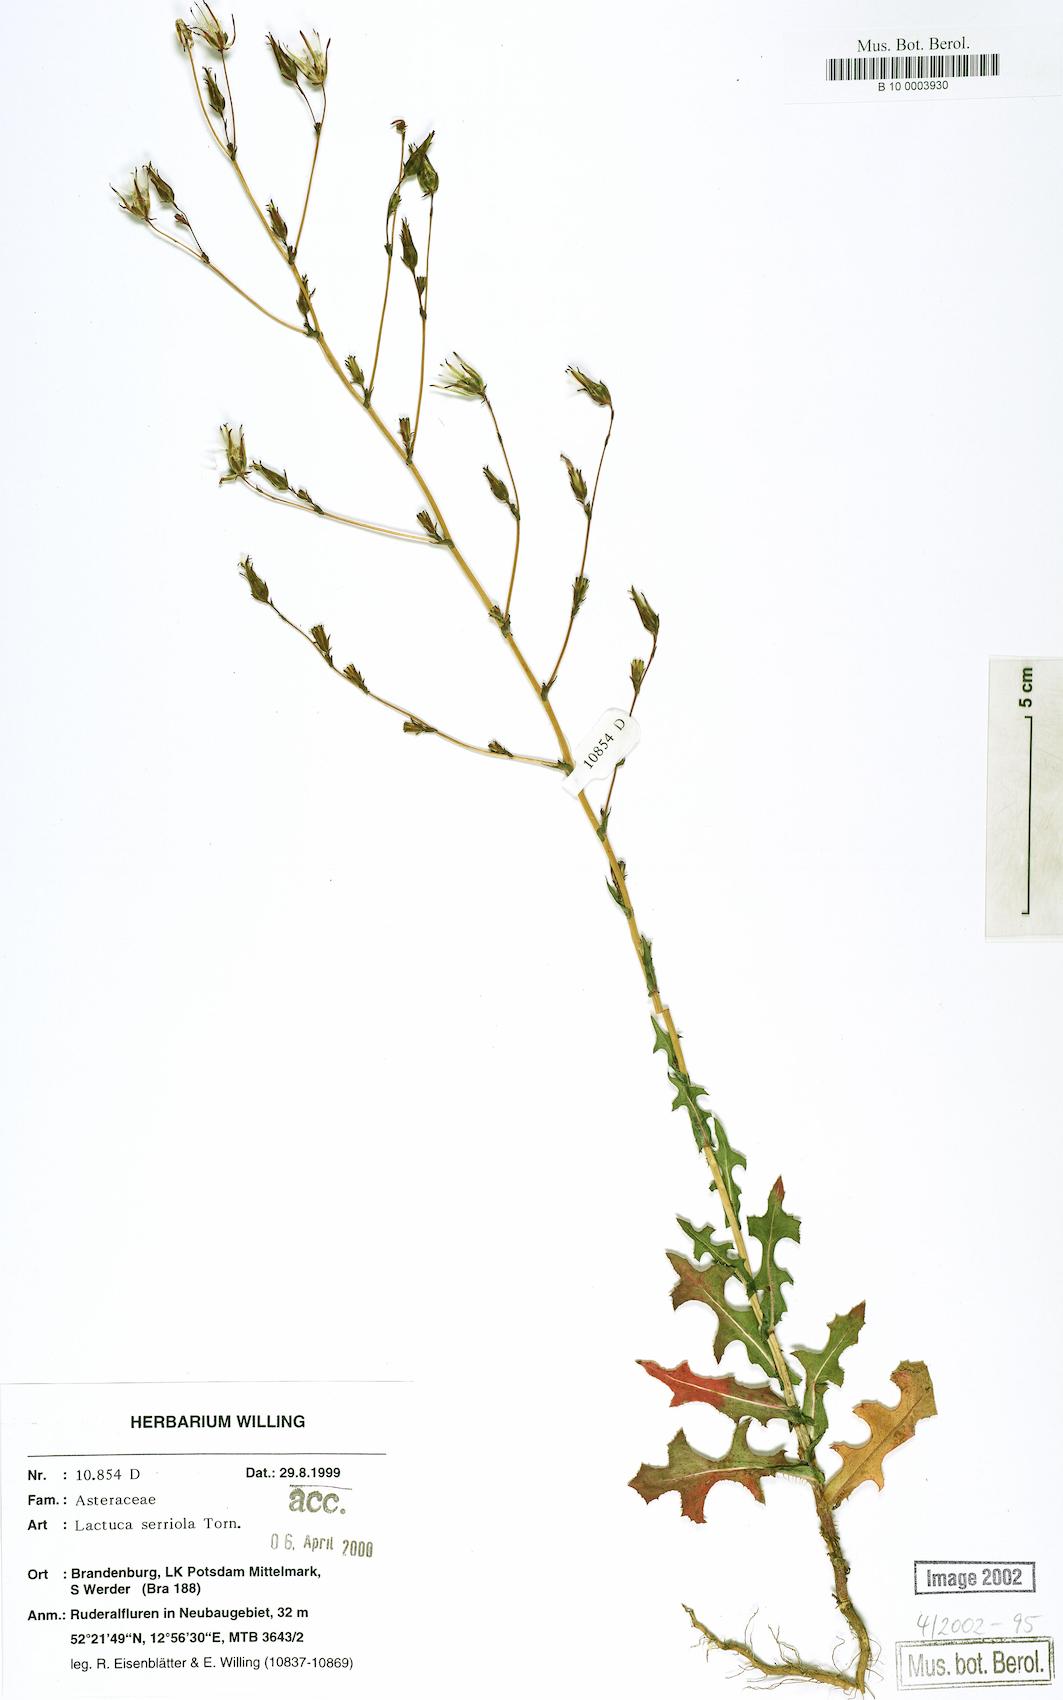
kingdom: Plantae
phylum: Tracheophyta
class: Magnoliopsida
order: Asterales
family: Asteraceae
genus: Lactuca
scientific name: Lactuca serriola
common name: Prickly lettuce
